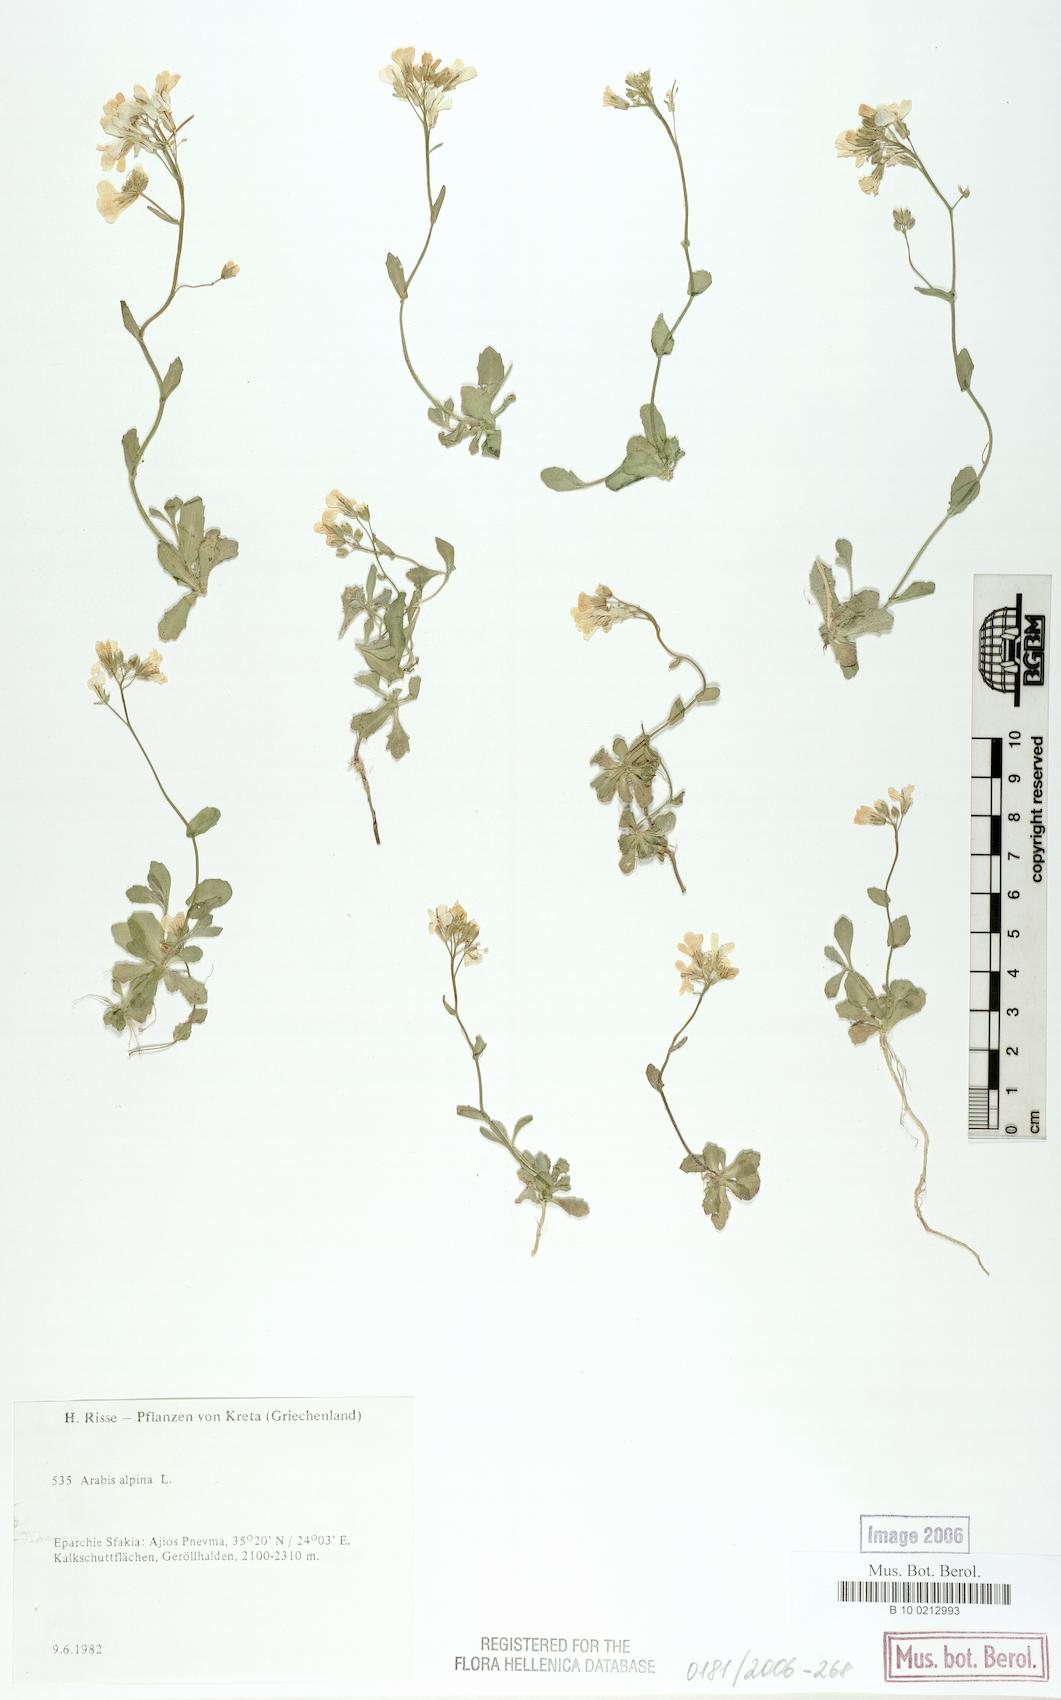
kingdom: Plantae
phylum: Tracheophyta
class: Magnoliopsida
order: Brassicales
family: Brassicaceae
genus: Arabis
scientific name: Arabis alpina
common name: Alpine rock-cress
